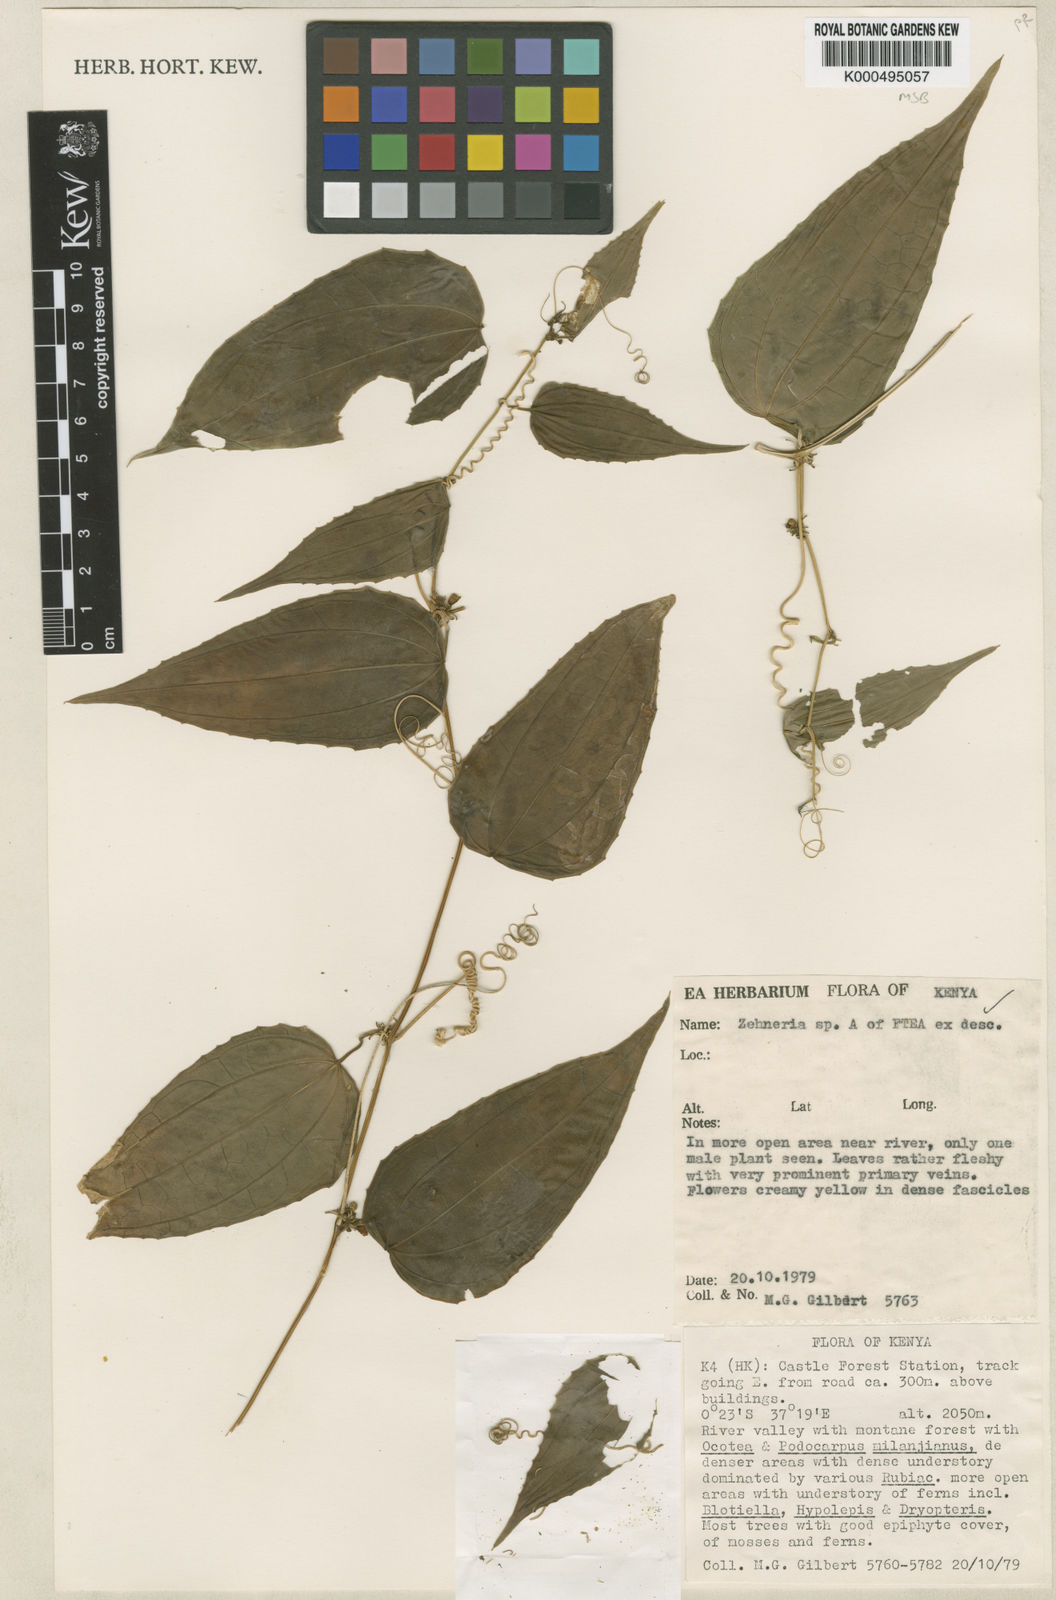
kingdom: Plantae
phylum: Tracheophyta
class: Magnoliopsida
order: Cucurbitales
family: Cucurbitaceae
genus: Zehneria
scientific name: Zehneria
